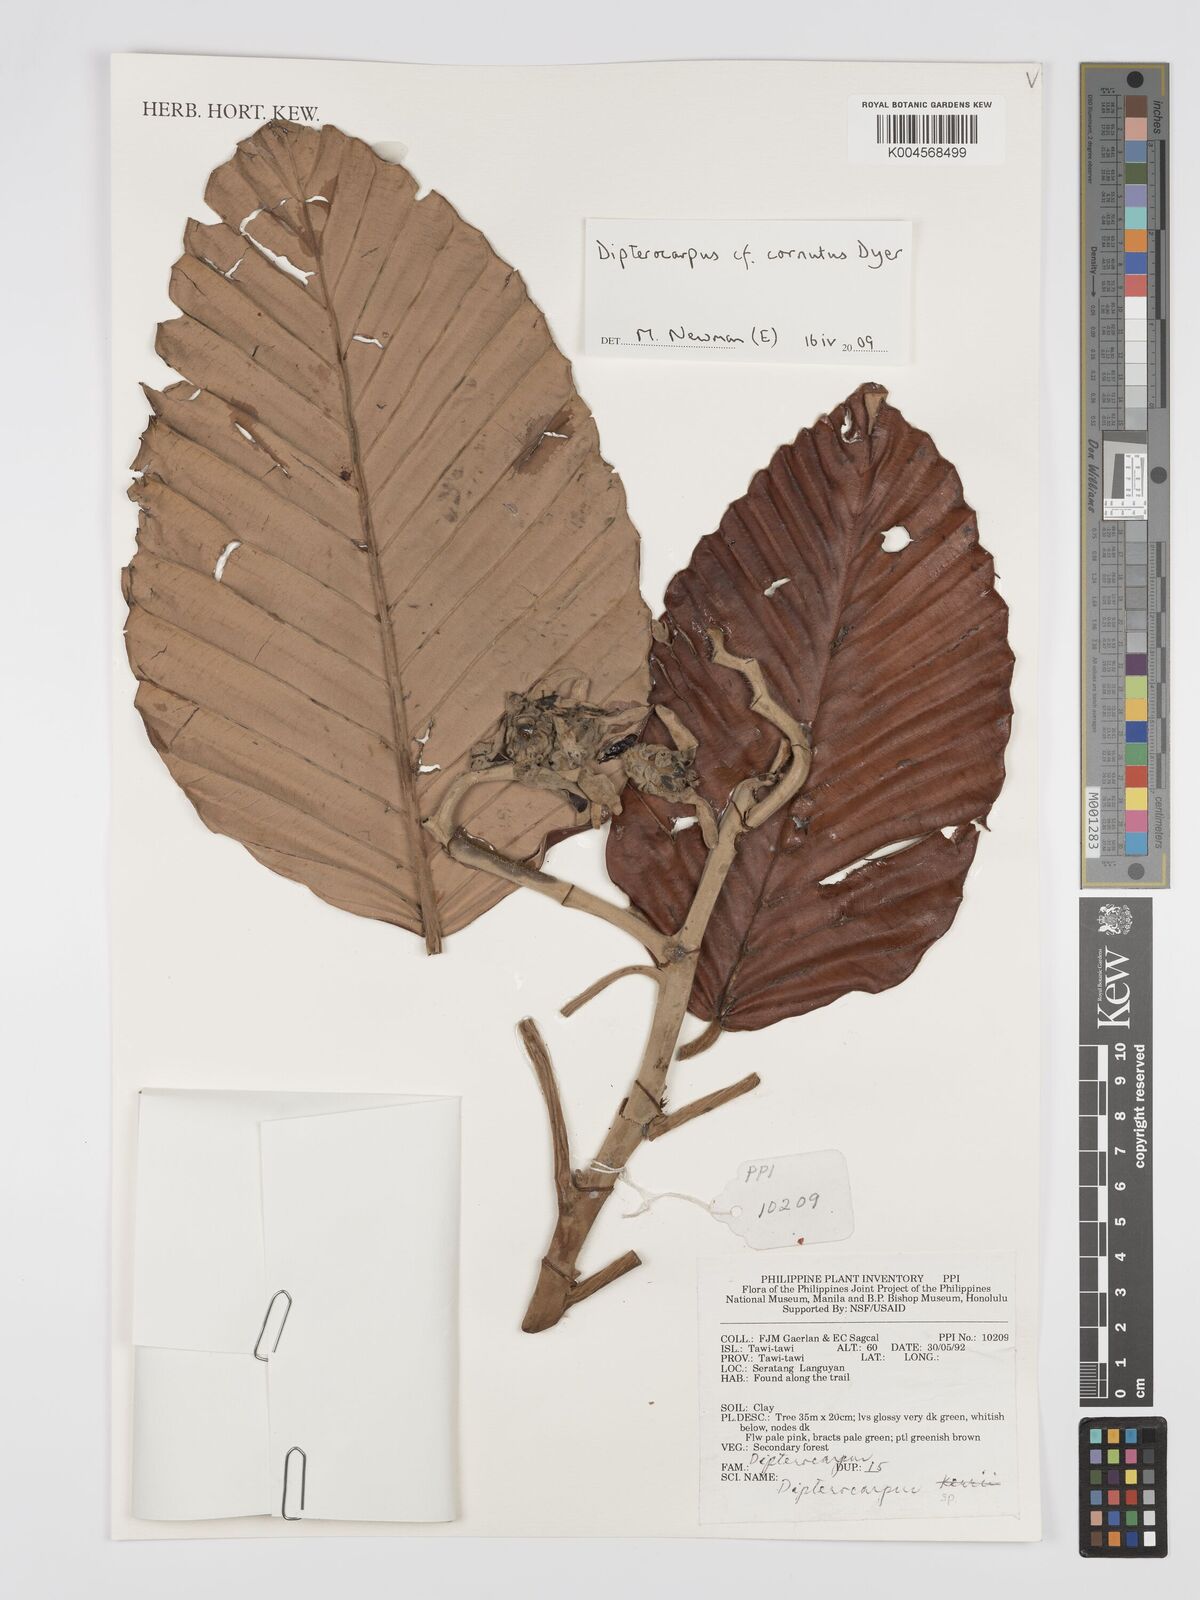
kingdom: Plantae
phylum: Tracheophyta
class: Magnoliopsida
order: Malvales
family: Dipterocarpaceae
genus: Dipterocarpus
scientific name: Dipterocarpus
